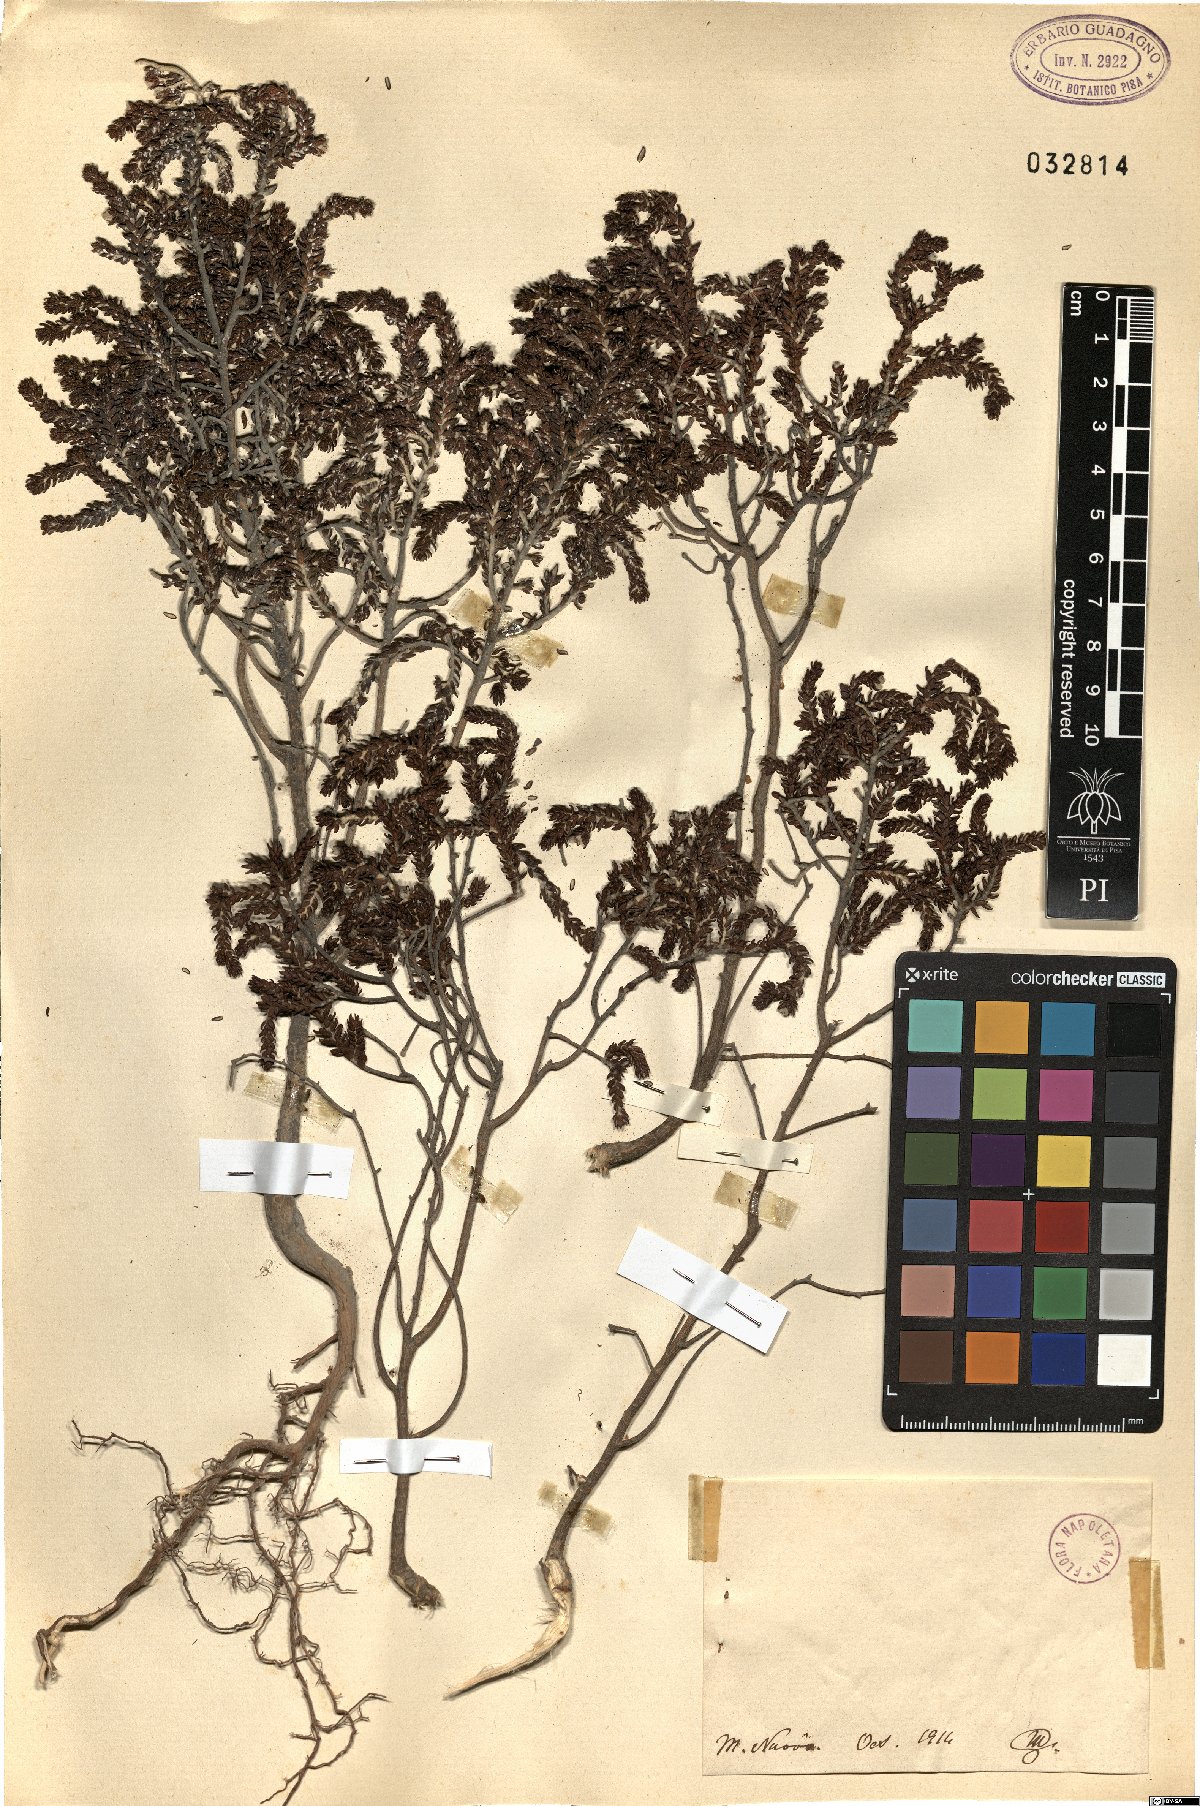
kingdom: Plantae
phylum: Tracheophyta
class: Magnoliopsida
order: Malvales
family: Thymelaeaceae
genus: Thymelaea
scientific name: Thymelaea
